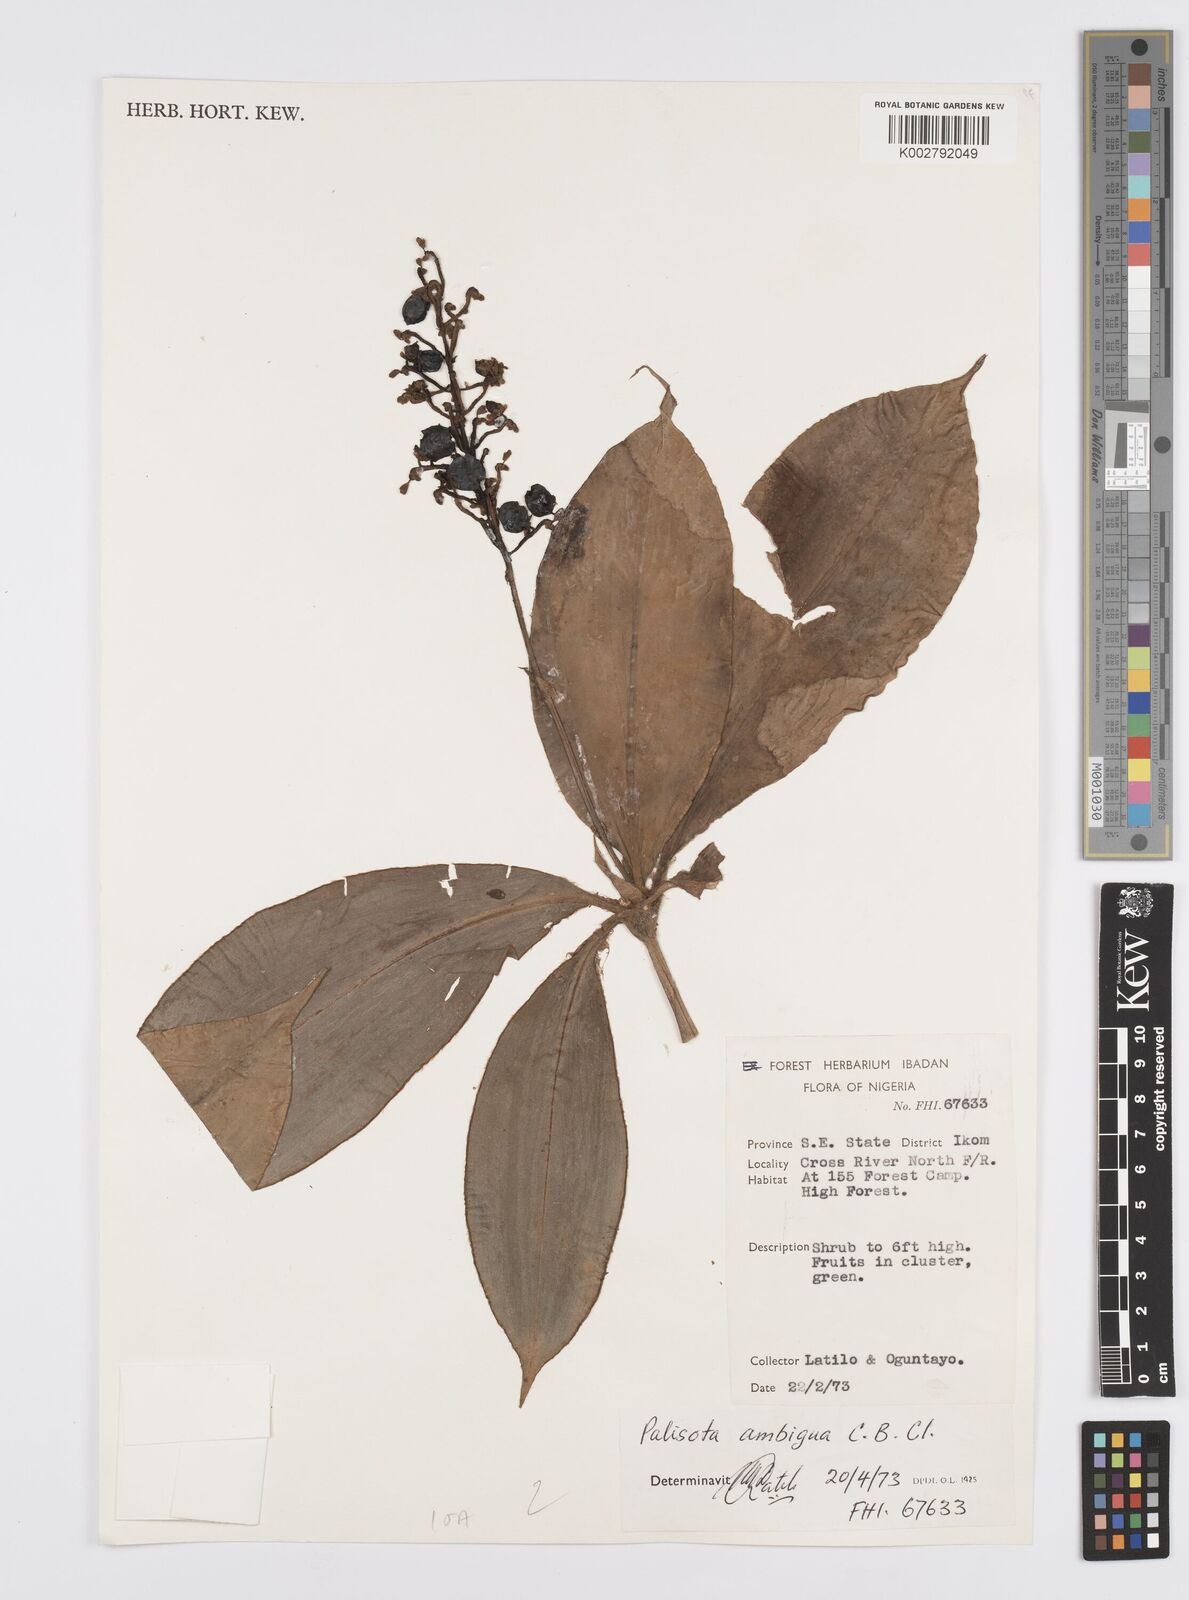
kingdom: Plantae
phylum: Tracheophyta
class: Liliopsida
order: Commelinales
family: Commelinaceae
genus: Palisota
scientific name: Palisota ambigua
